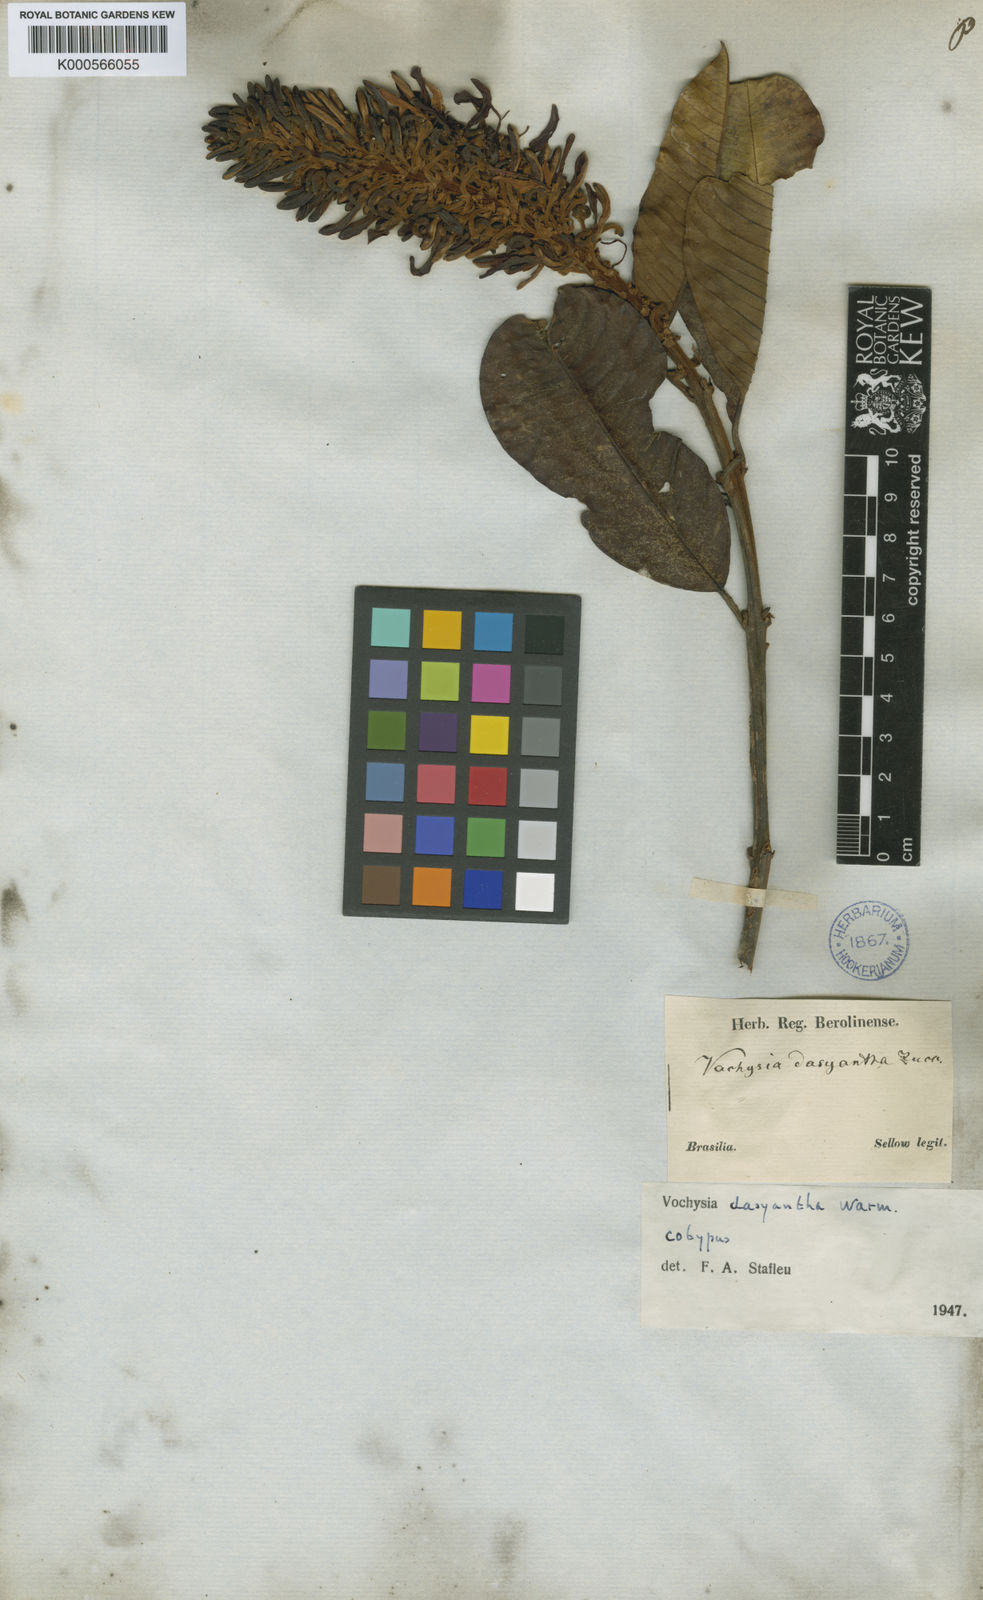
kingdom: Plantae
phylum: Tracheophyta
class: Magnoliopsida
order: Myrtales
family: Vochysiaceae
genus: Vochysia
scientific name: Vochysia dasyantha
